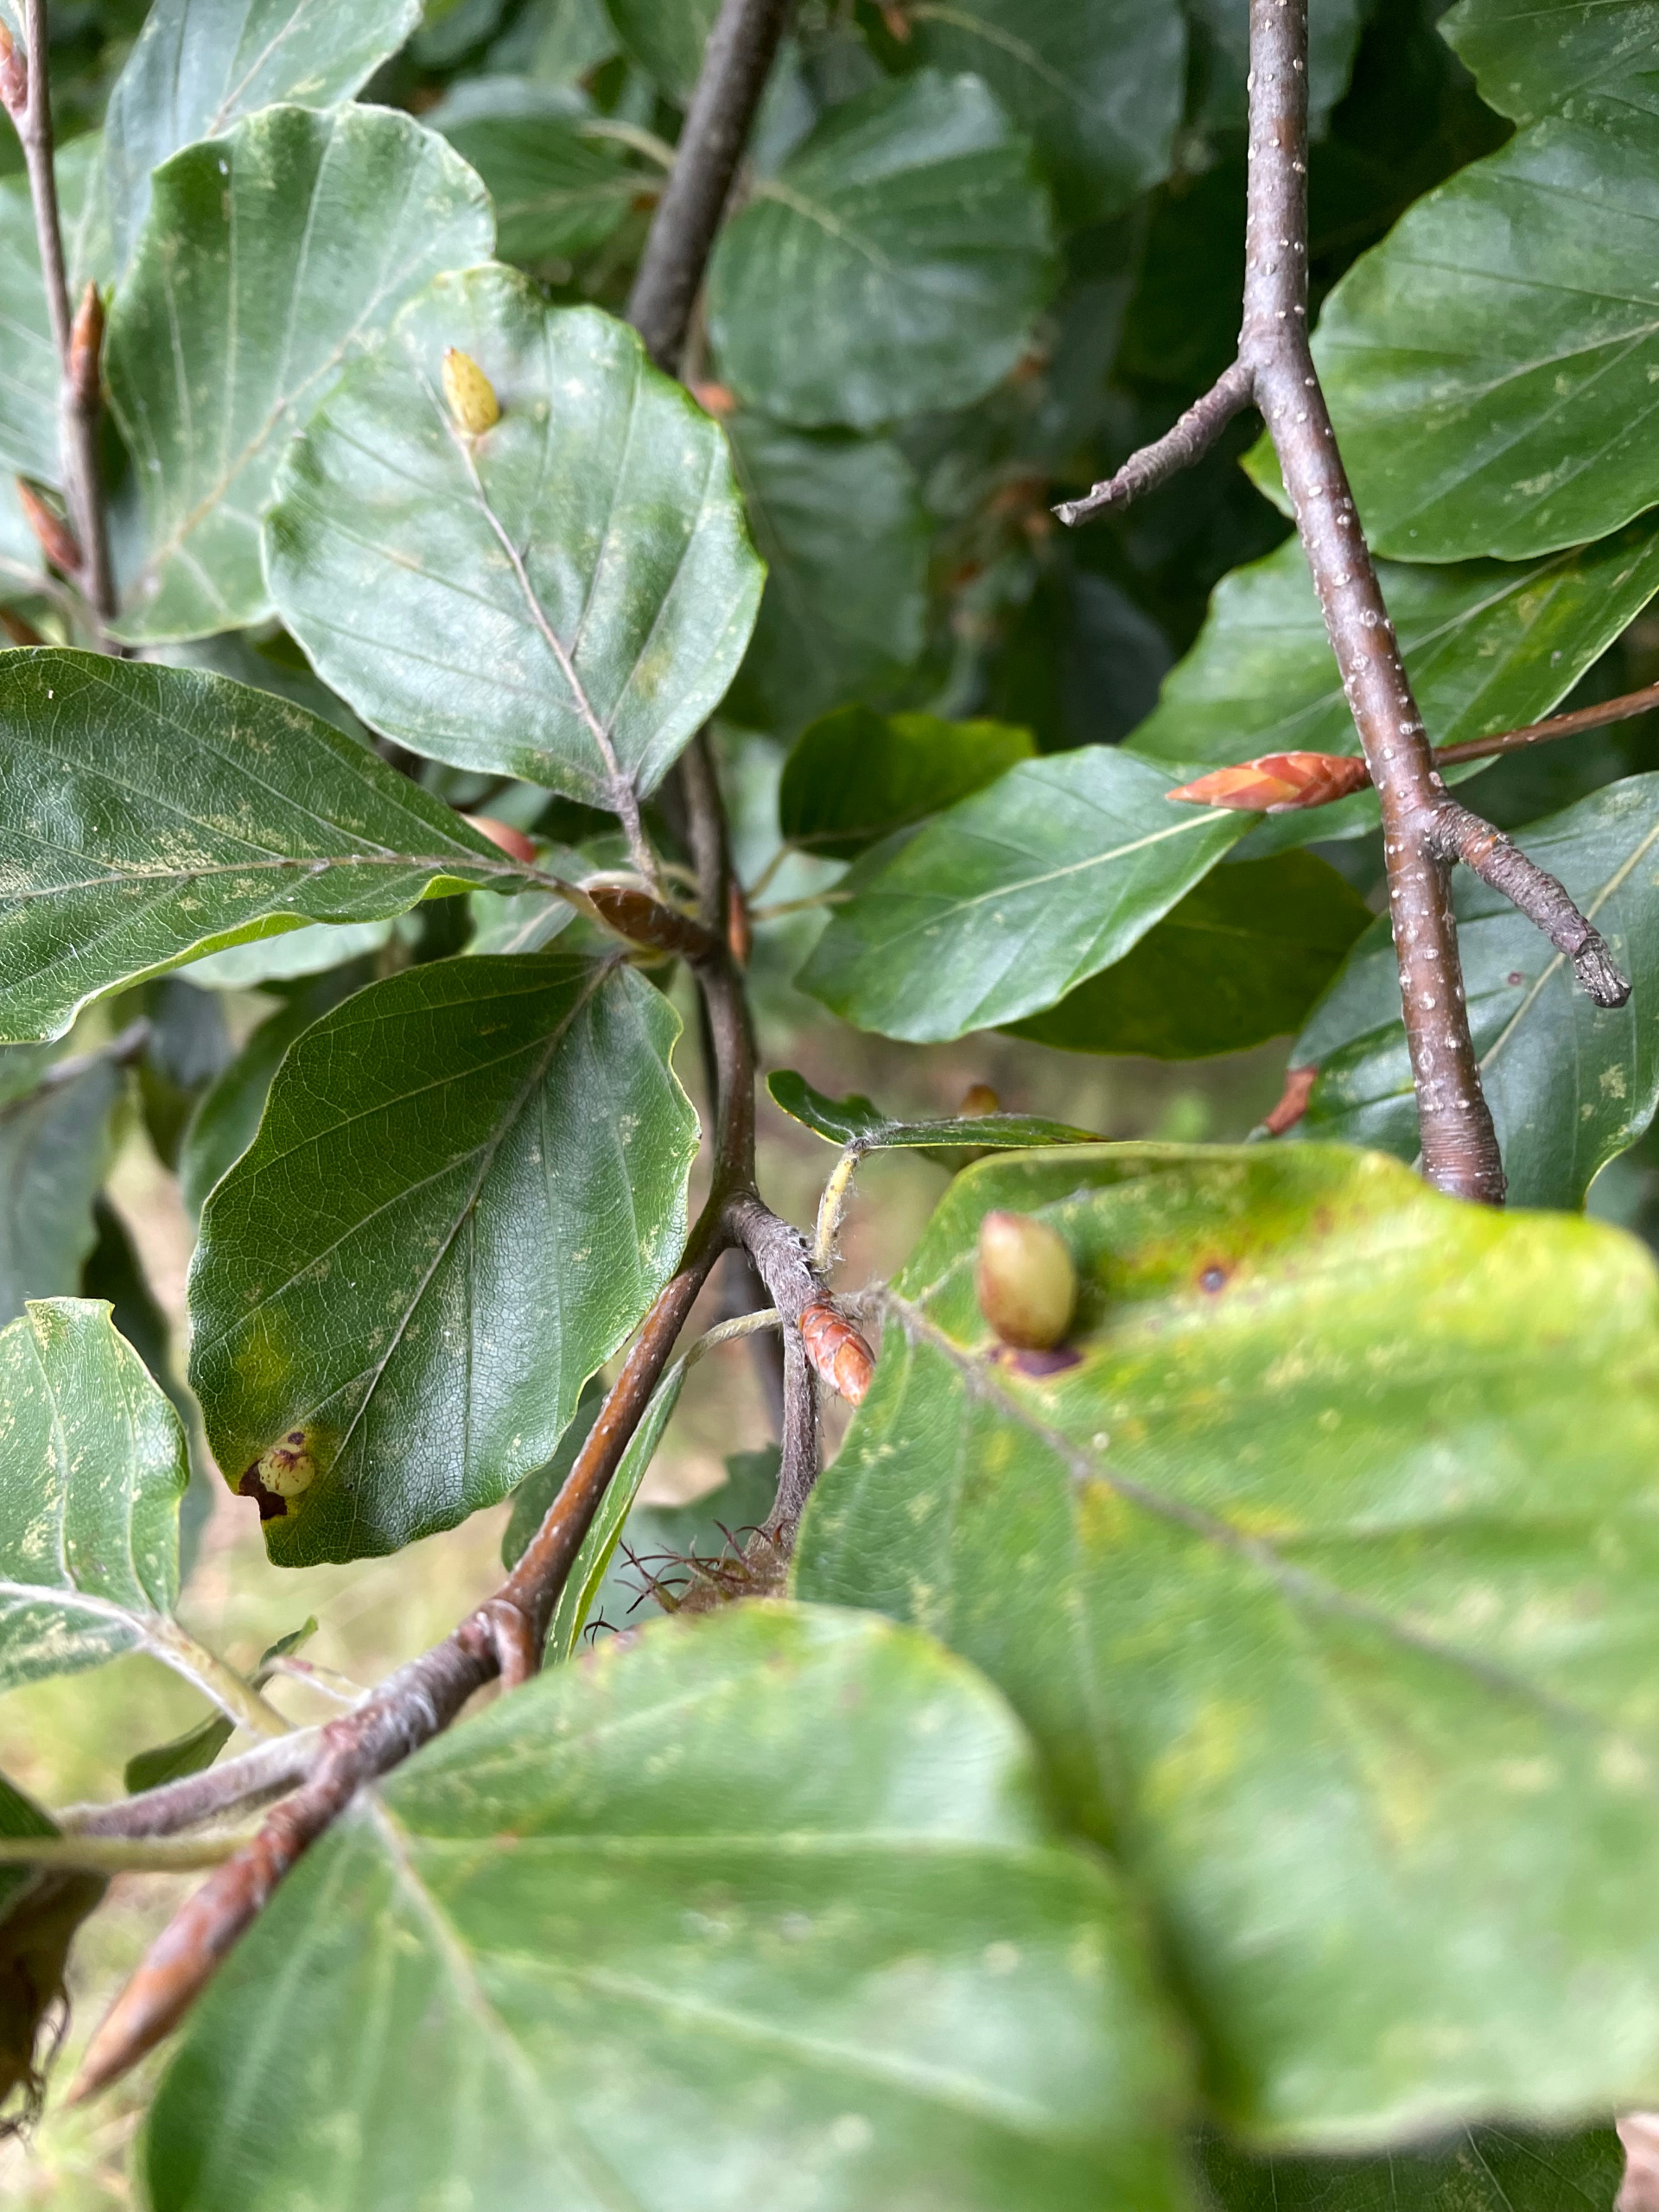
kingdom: Animalia
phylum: Arthropoda
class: Insecta
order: Diptera
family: Cecidomyiidae
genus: Mikiola
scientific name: Mikiola fagi
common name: Bøgegalmyg
